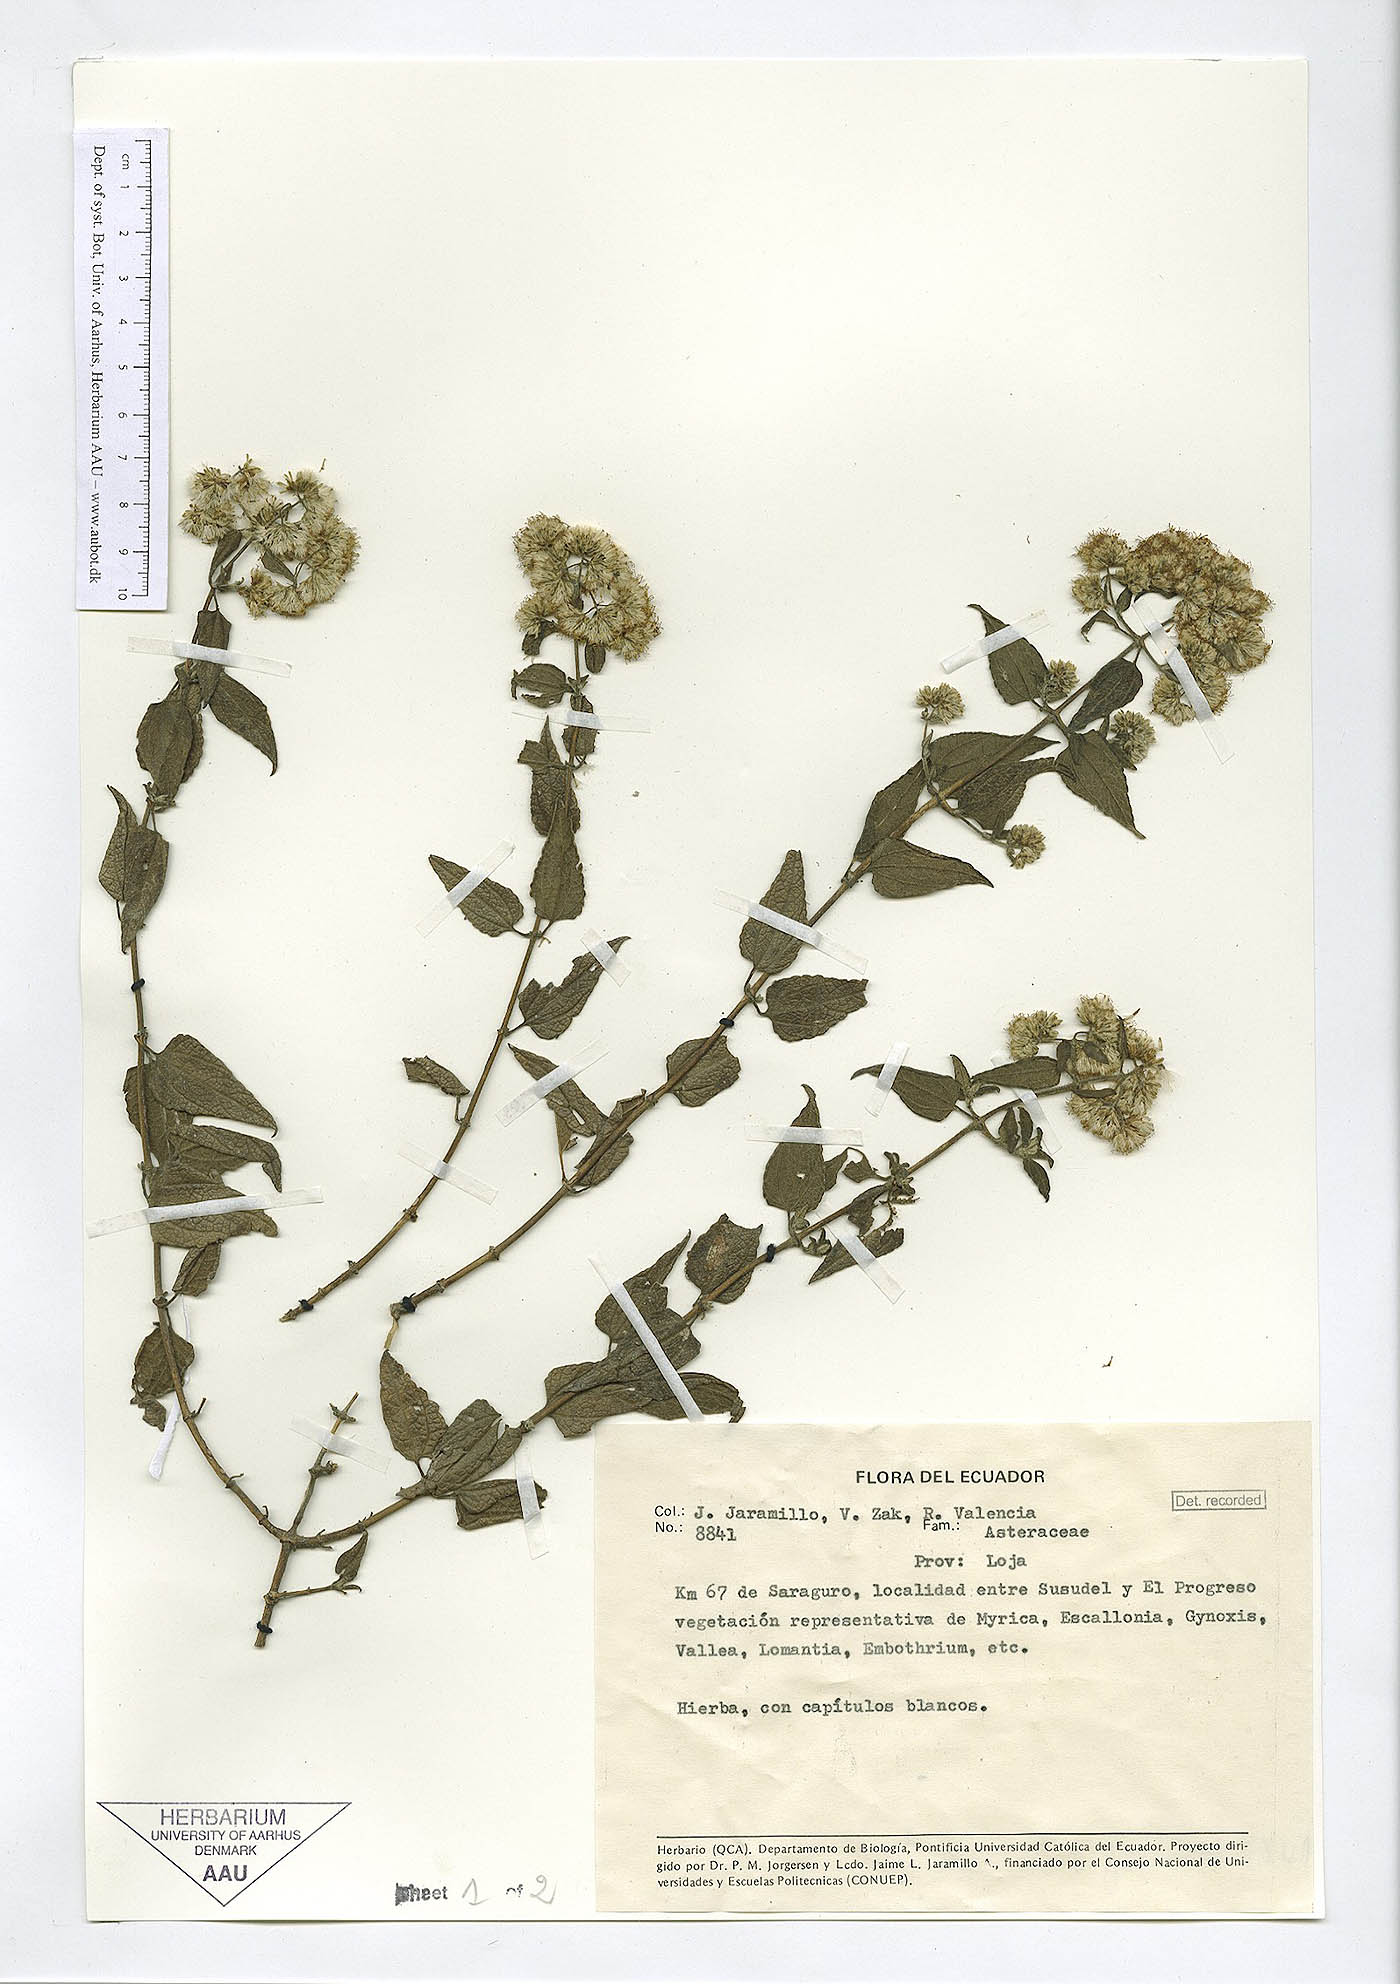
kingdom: Plantae
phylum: Tracheophyta
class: Magnoliopsida
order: Asterales
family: Asteraceae
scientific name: Asteraceae
